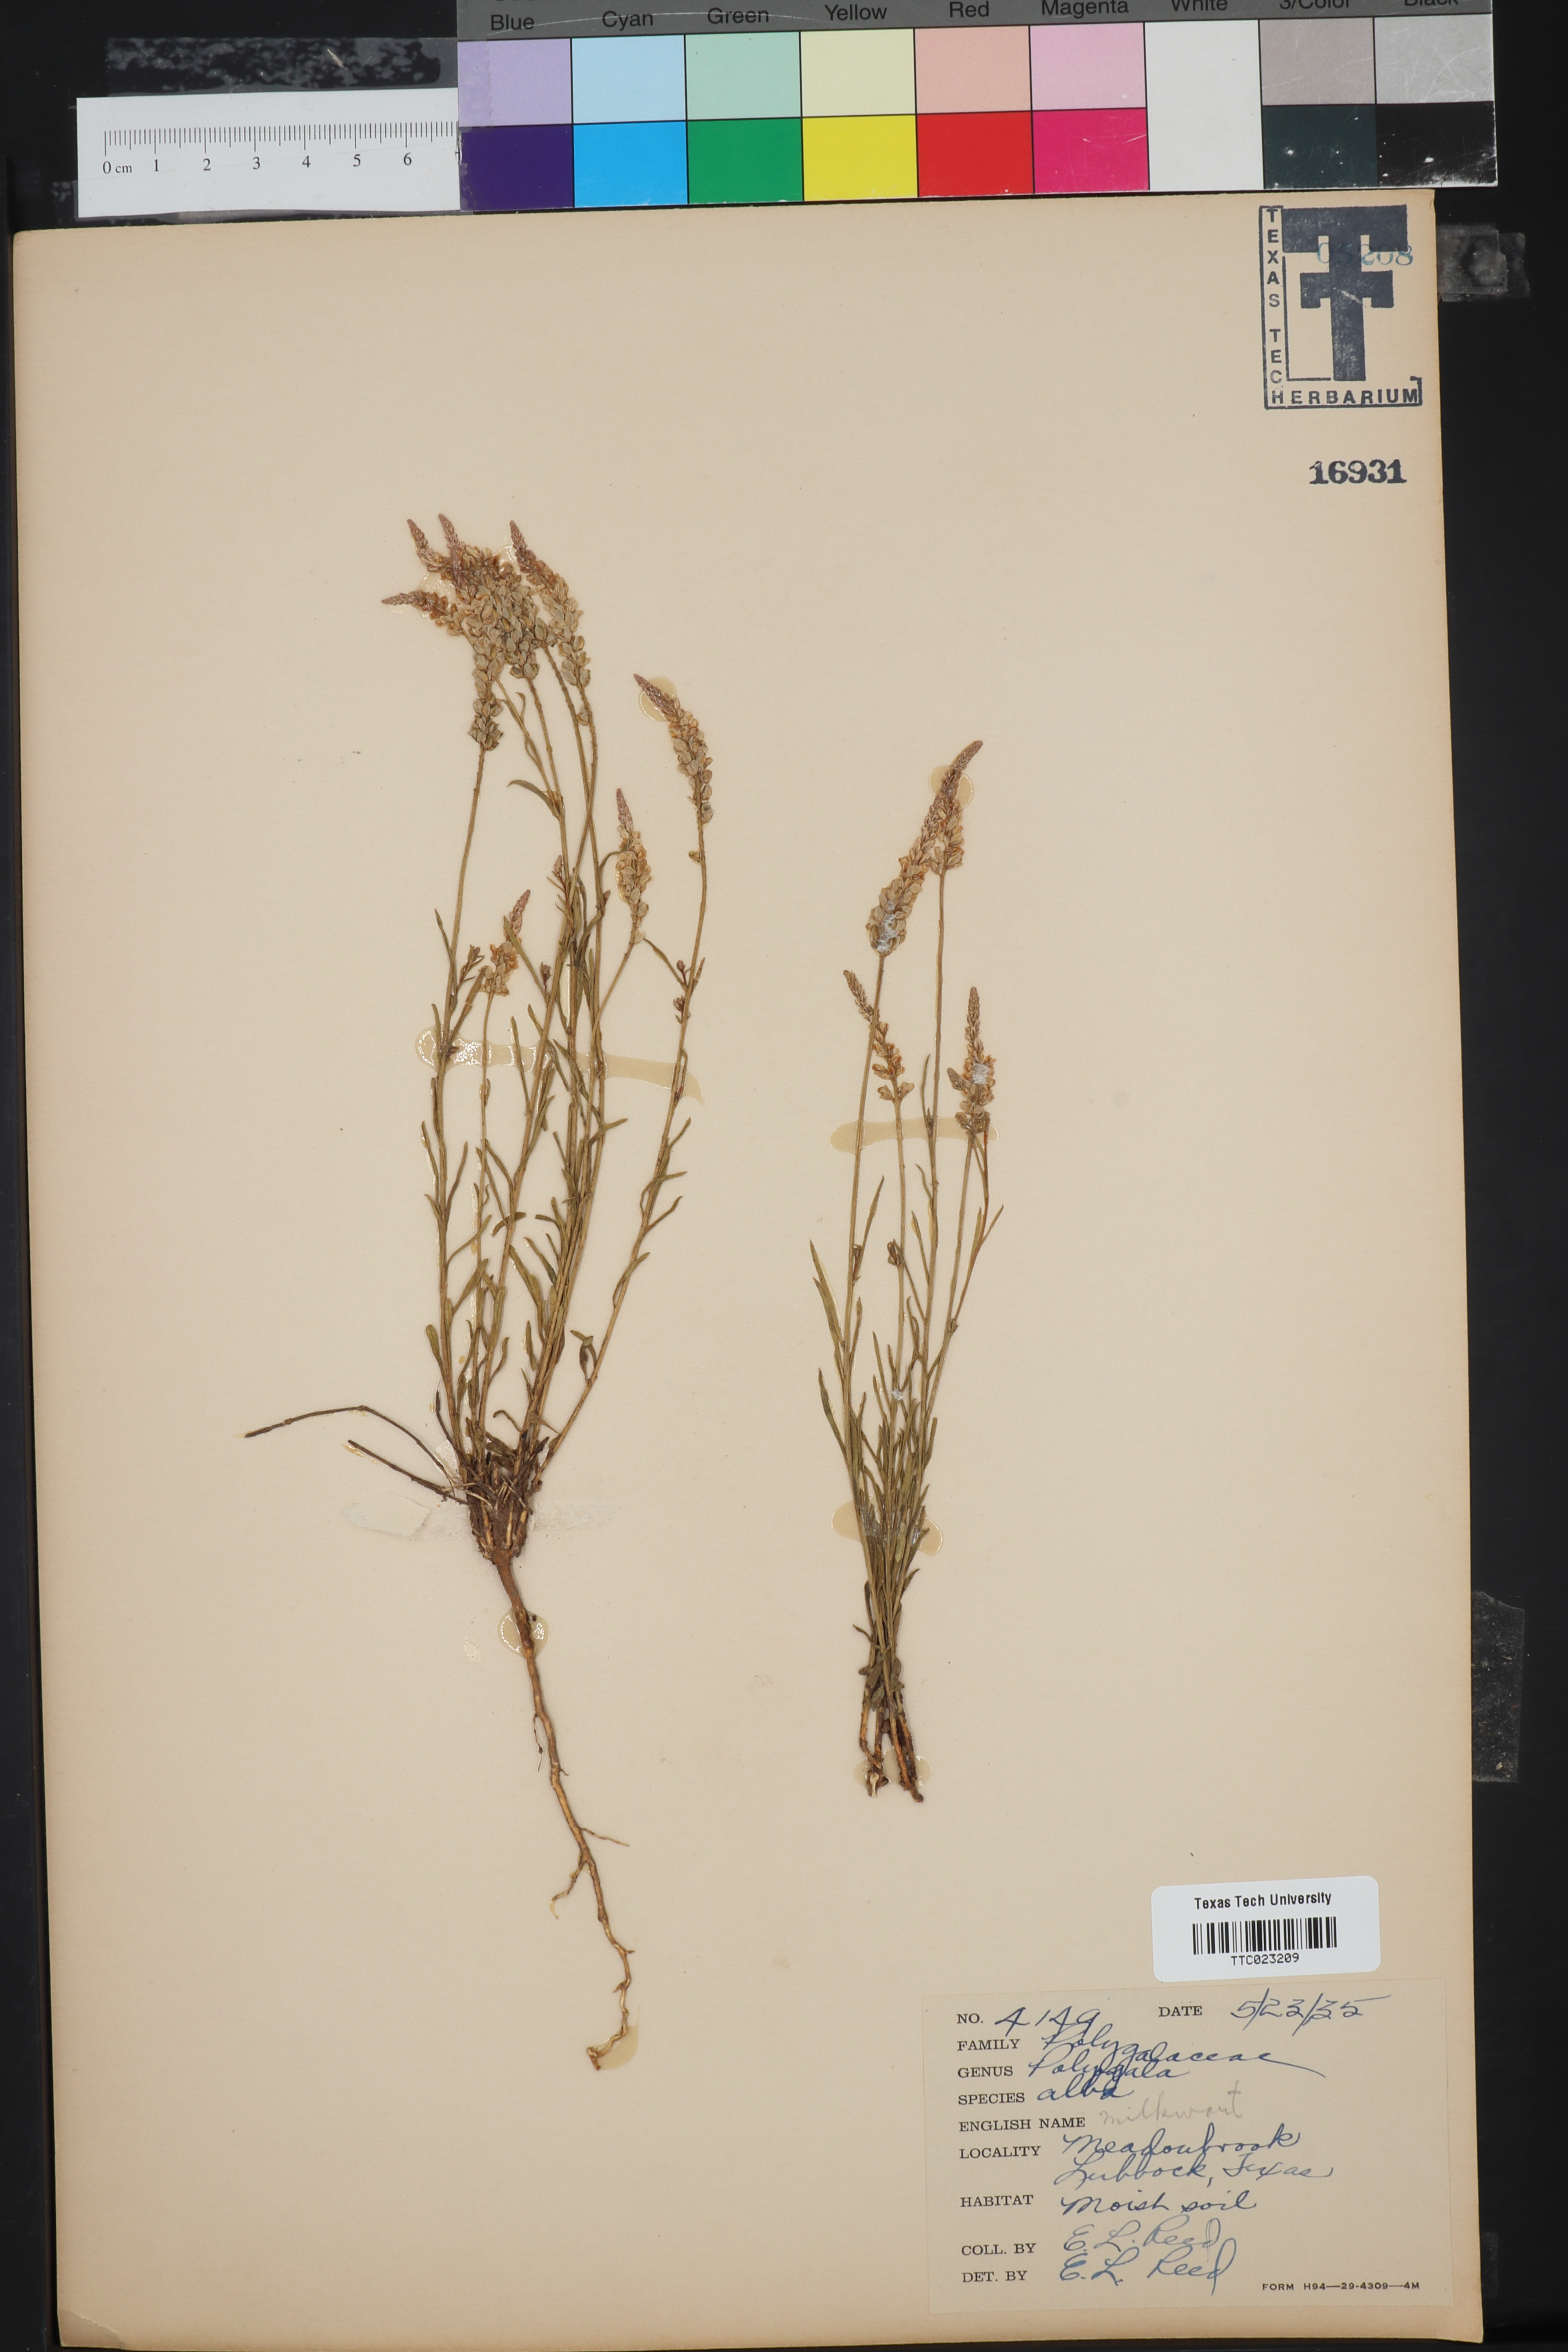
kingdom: Plantae
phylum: Tracheophyta
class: Magnoliopsida
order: Fabales
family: Polygalaceae
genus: Polygala
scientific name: Polygala alba
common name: White milkwort
